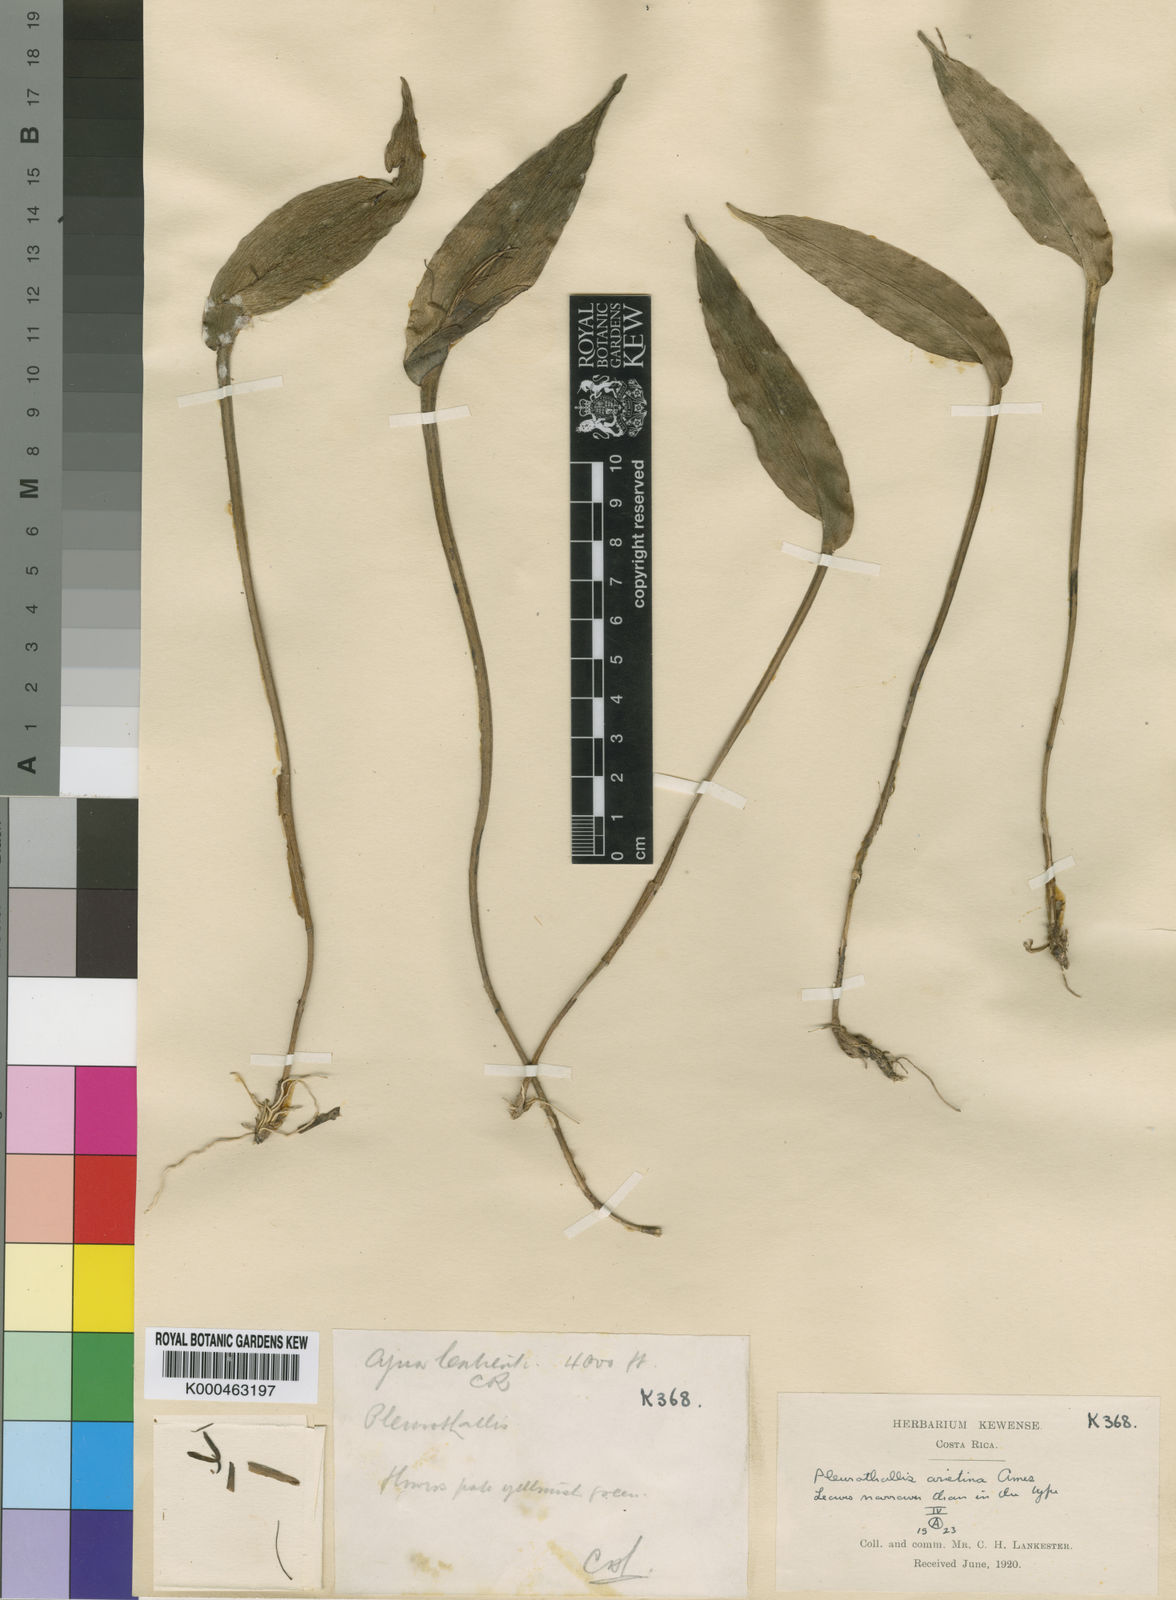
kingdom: Plantae
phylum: Tracheophyta
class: Liliopsida
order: Asparagales
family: Orchidaceae
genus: Pleurothallis
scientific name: Pleurothallis arietina
